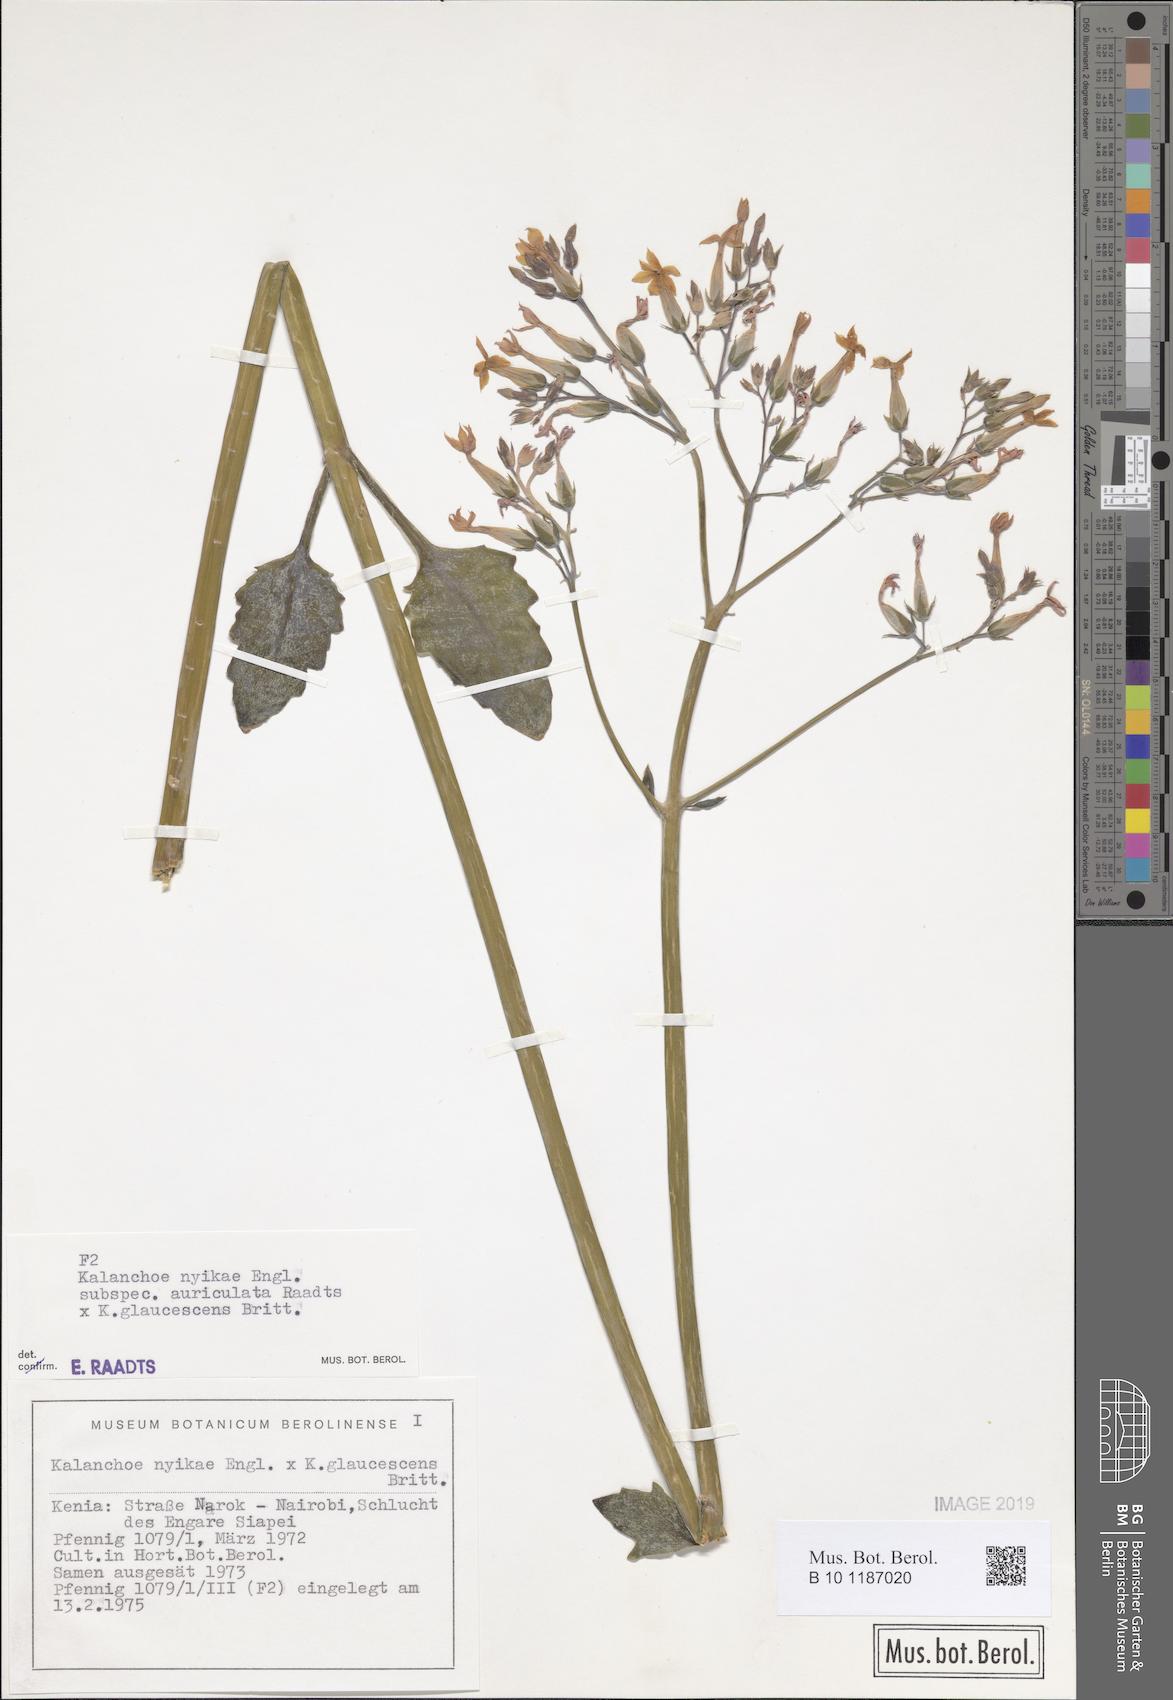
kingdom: Plantae
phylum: Tracheophyta
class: Magnoliopsida
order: Saxifragales
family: Crassulaceae
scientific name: Crassulaceae
